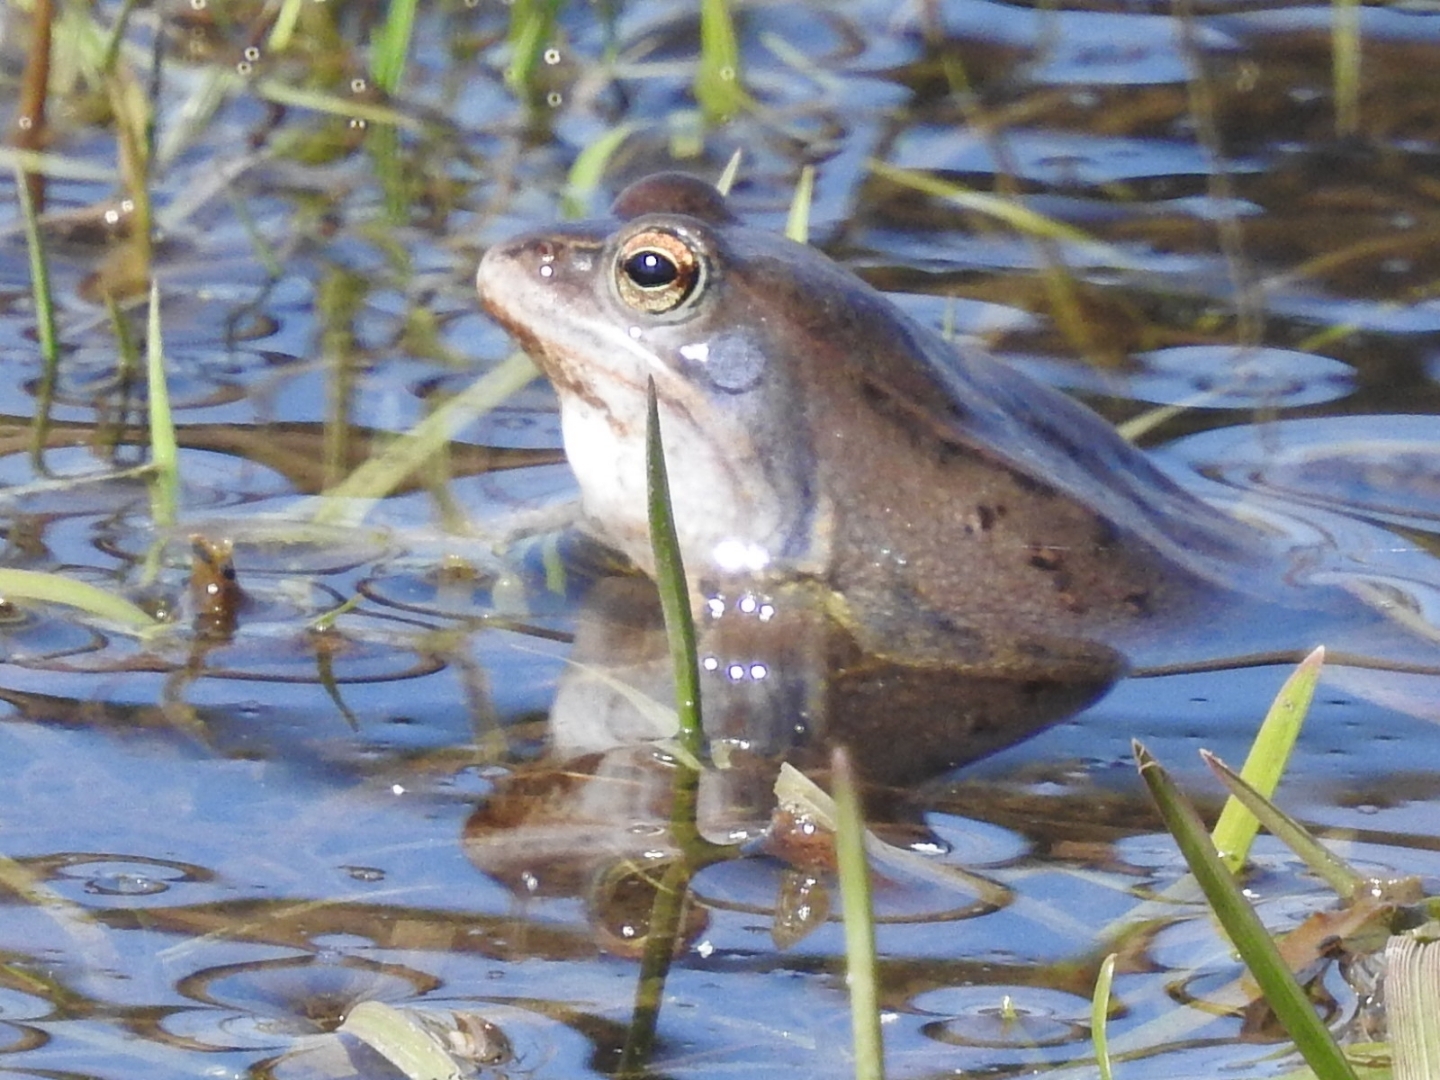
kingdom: Animalia
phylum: Chordata
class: Amphibia
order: Anura
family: Ranidae
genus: Rana
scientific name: Rana arvalis
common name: Spidssnudet frø
